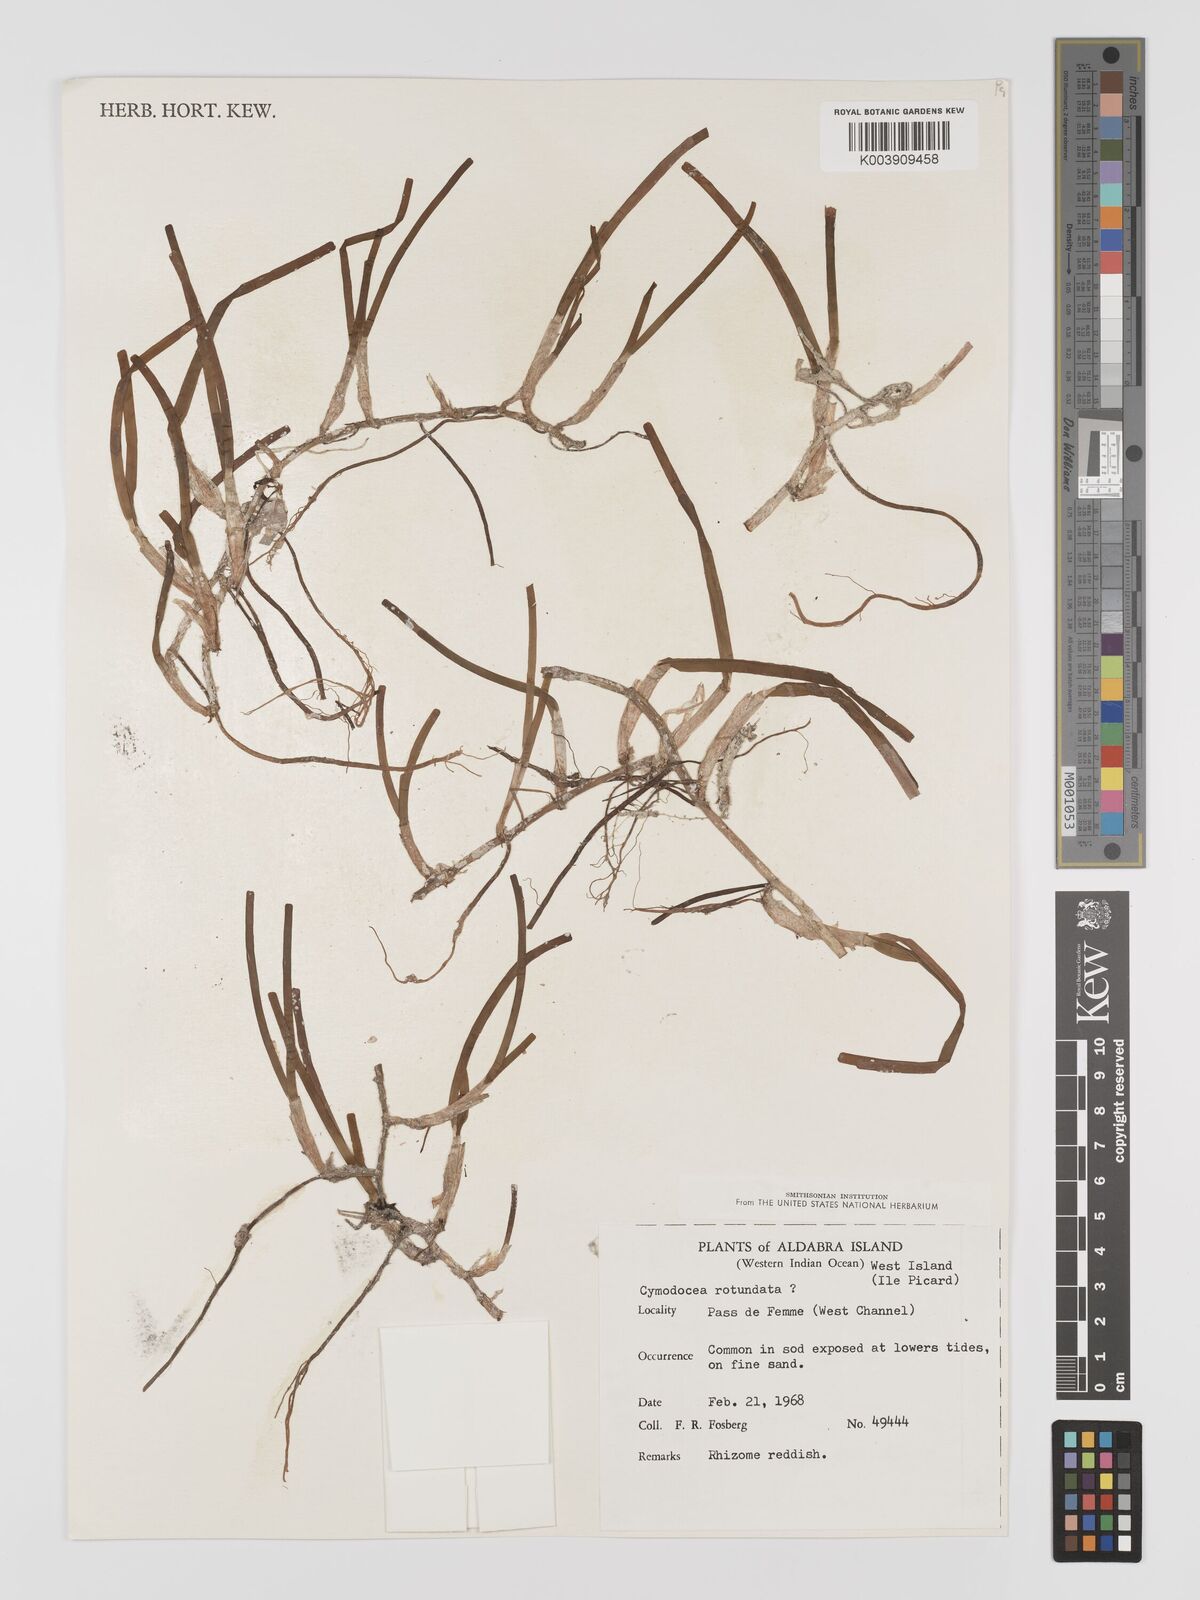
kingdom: Plantae
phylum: Tracheophyta
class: Liliopsida
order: Alismatales
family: Cymodoceaceae
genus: Cymodocea
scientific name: Cymodocea rotundata
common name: Species code: cr
